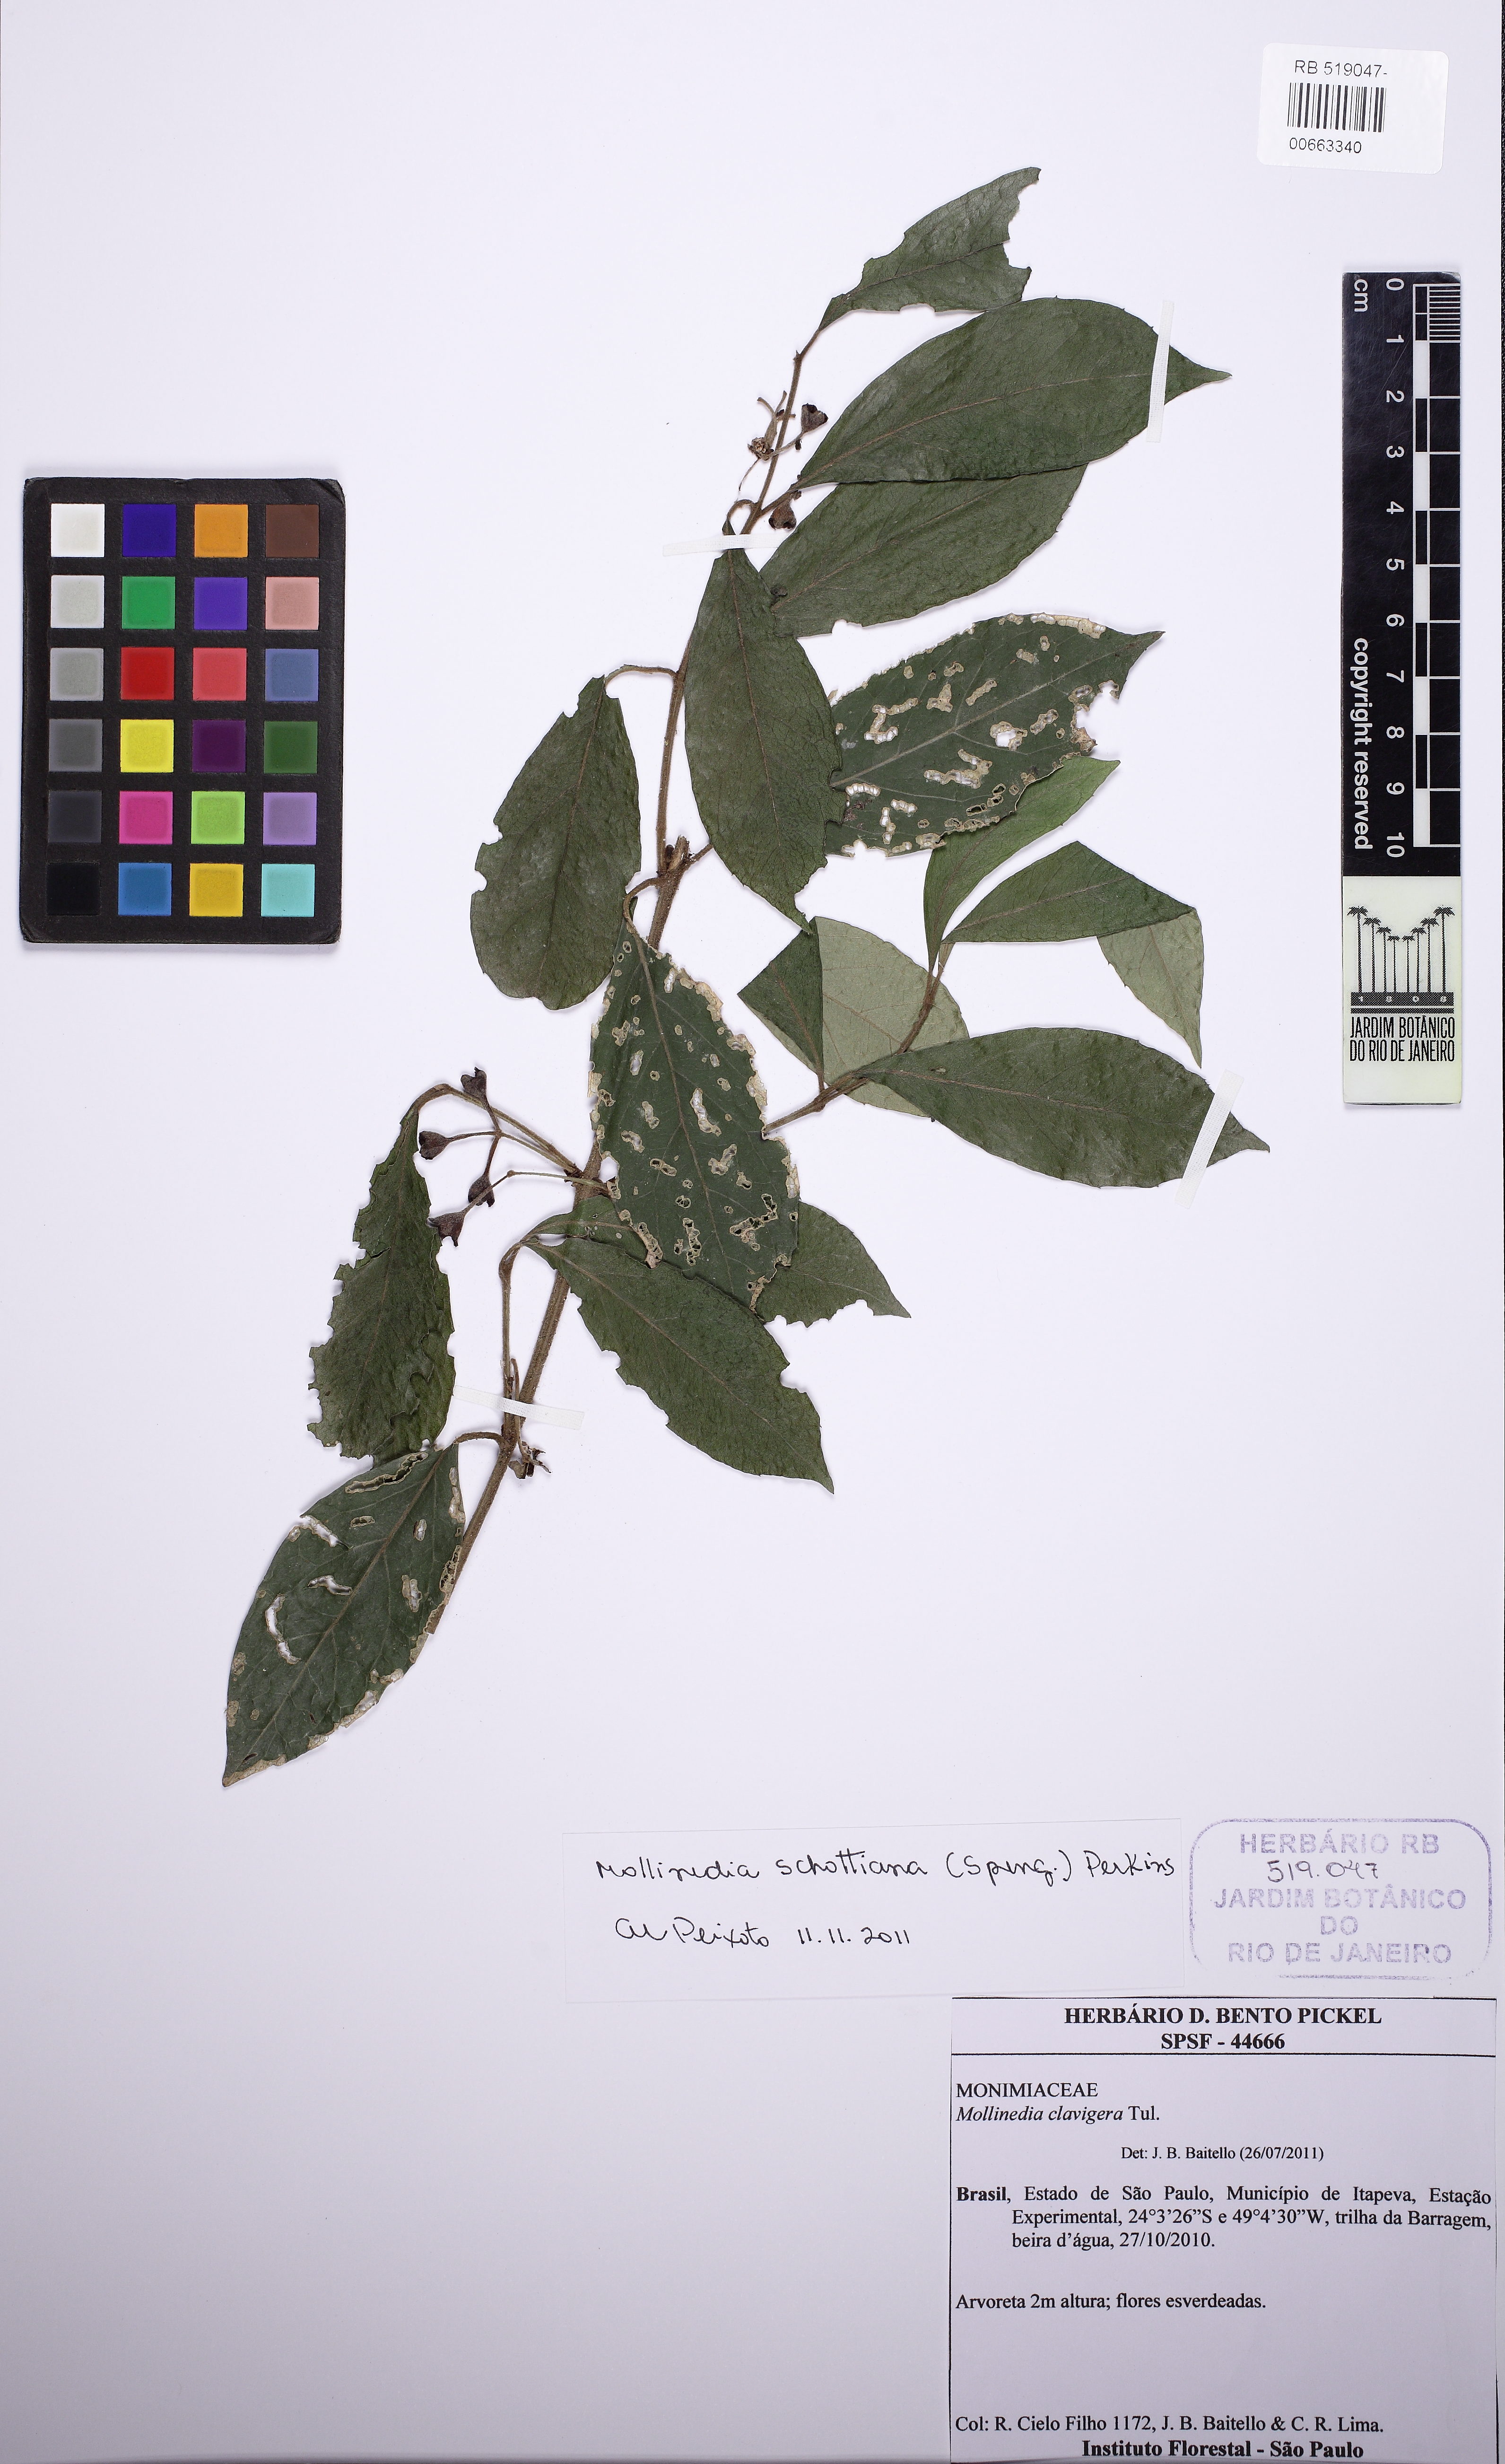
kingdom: Plantae
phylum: Tracheophyta
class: Magnoliopsida
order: Laurales
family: Monimiaceae
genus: Mollinedia
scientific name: Mollinedia umbellata
